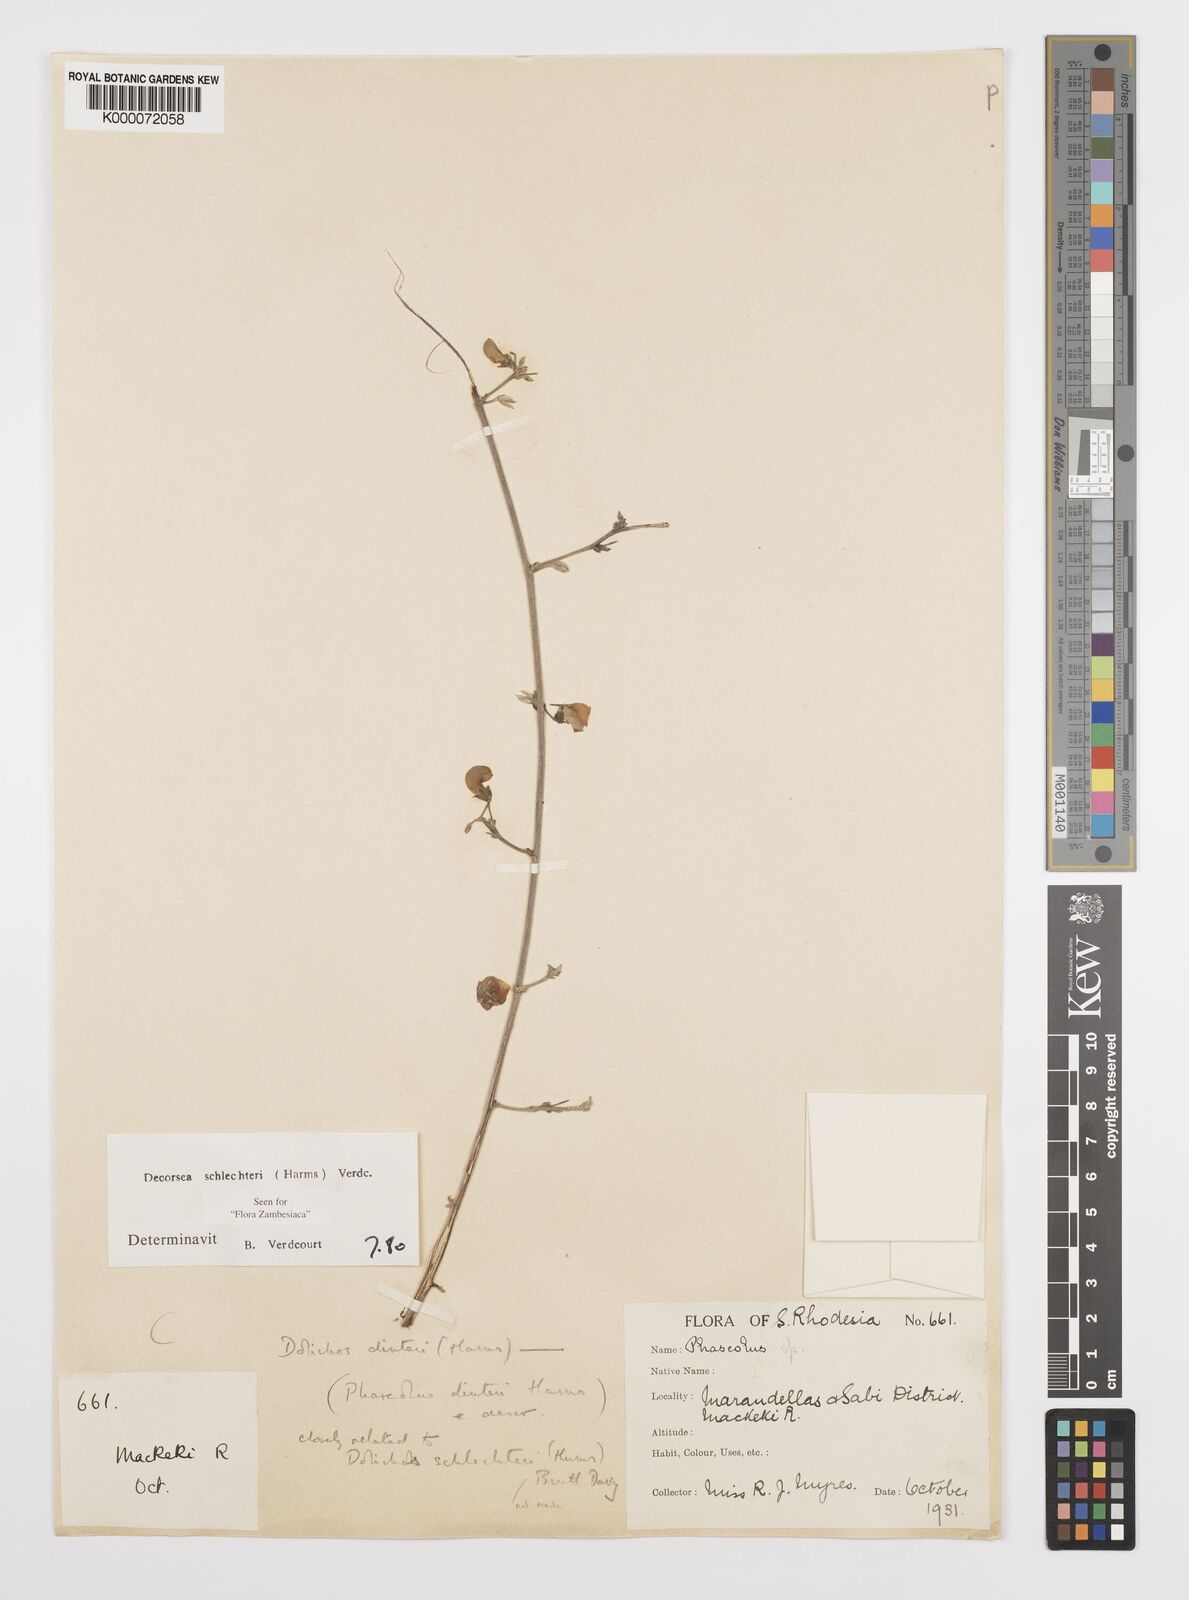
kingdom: Plantae
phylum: Tracheophyta
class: Magnoliopsida
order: Fabales
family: Fabaceae
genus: Decorsea
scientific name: Decorsea schlechteri
